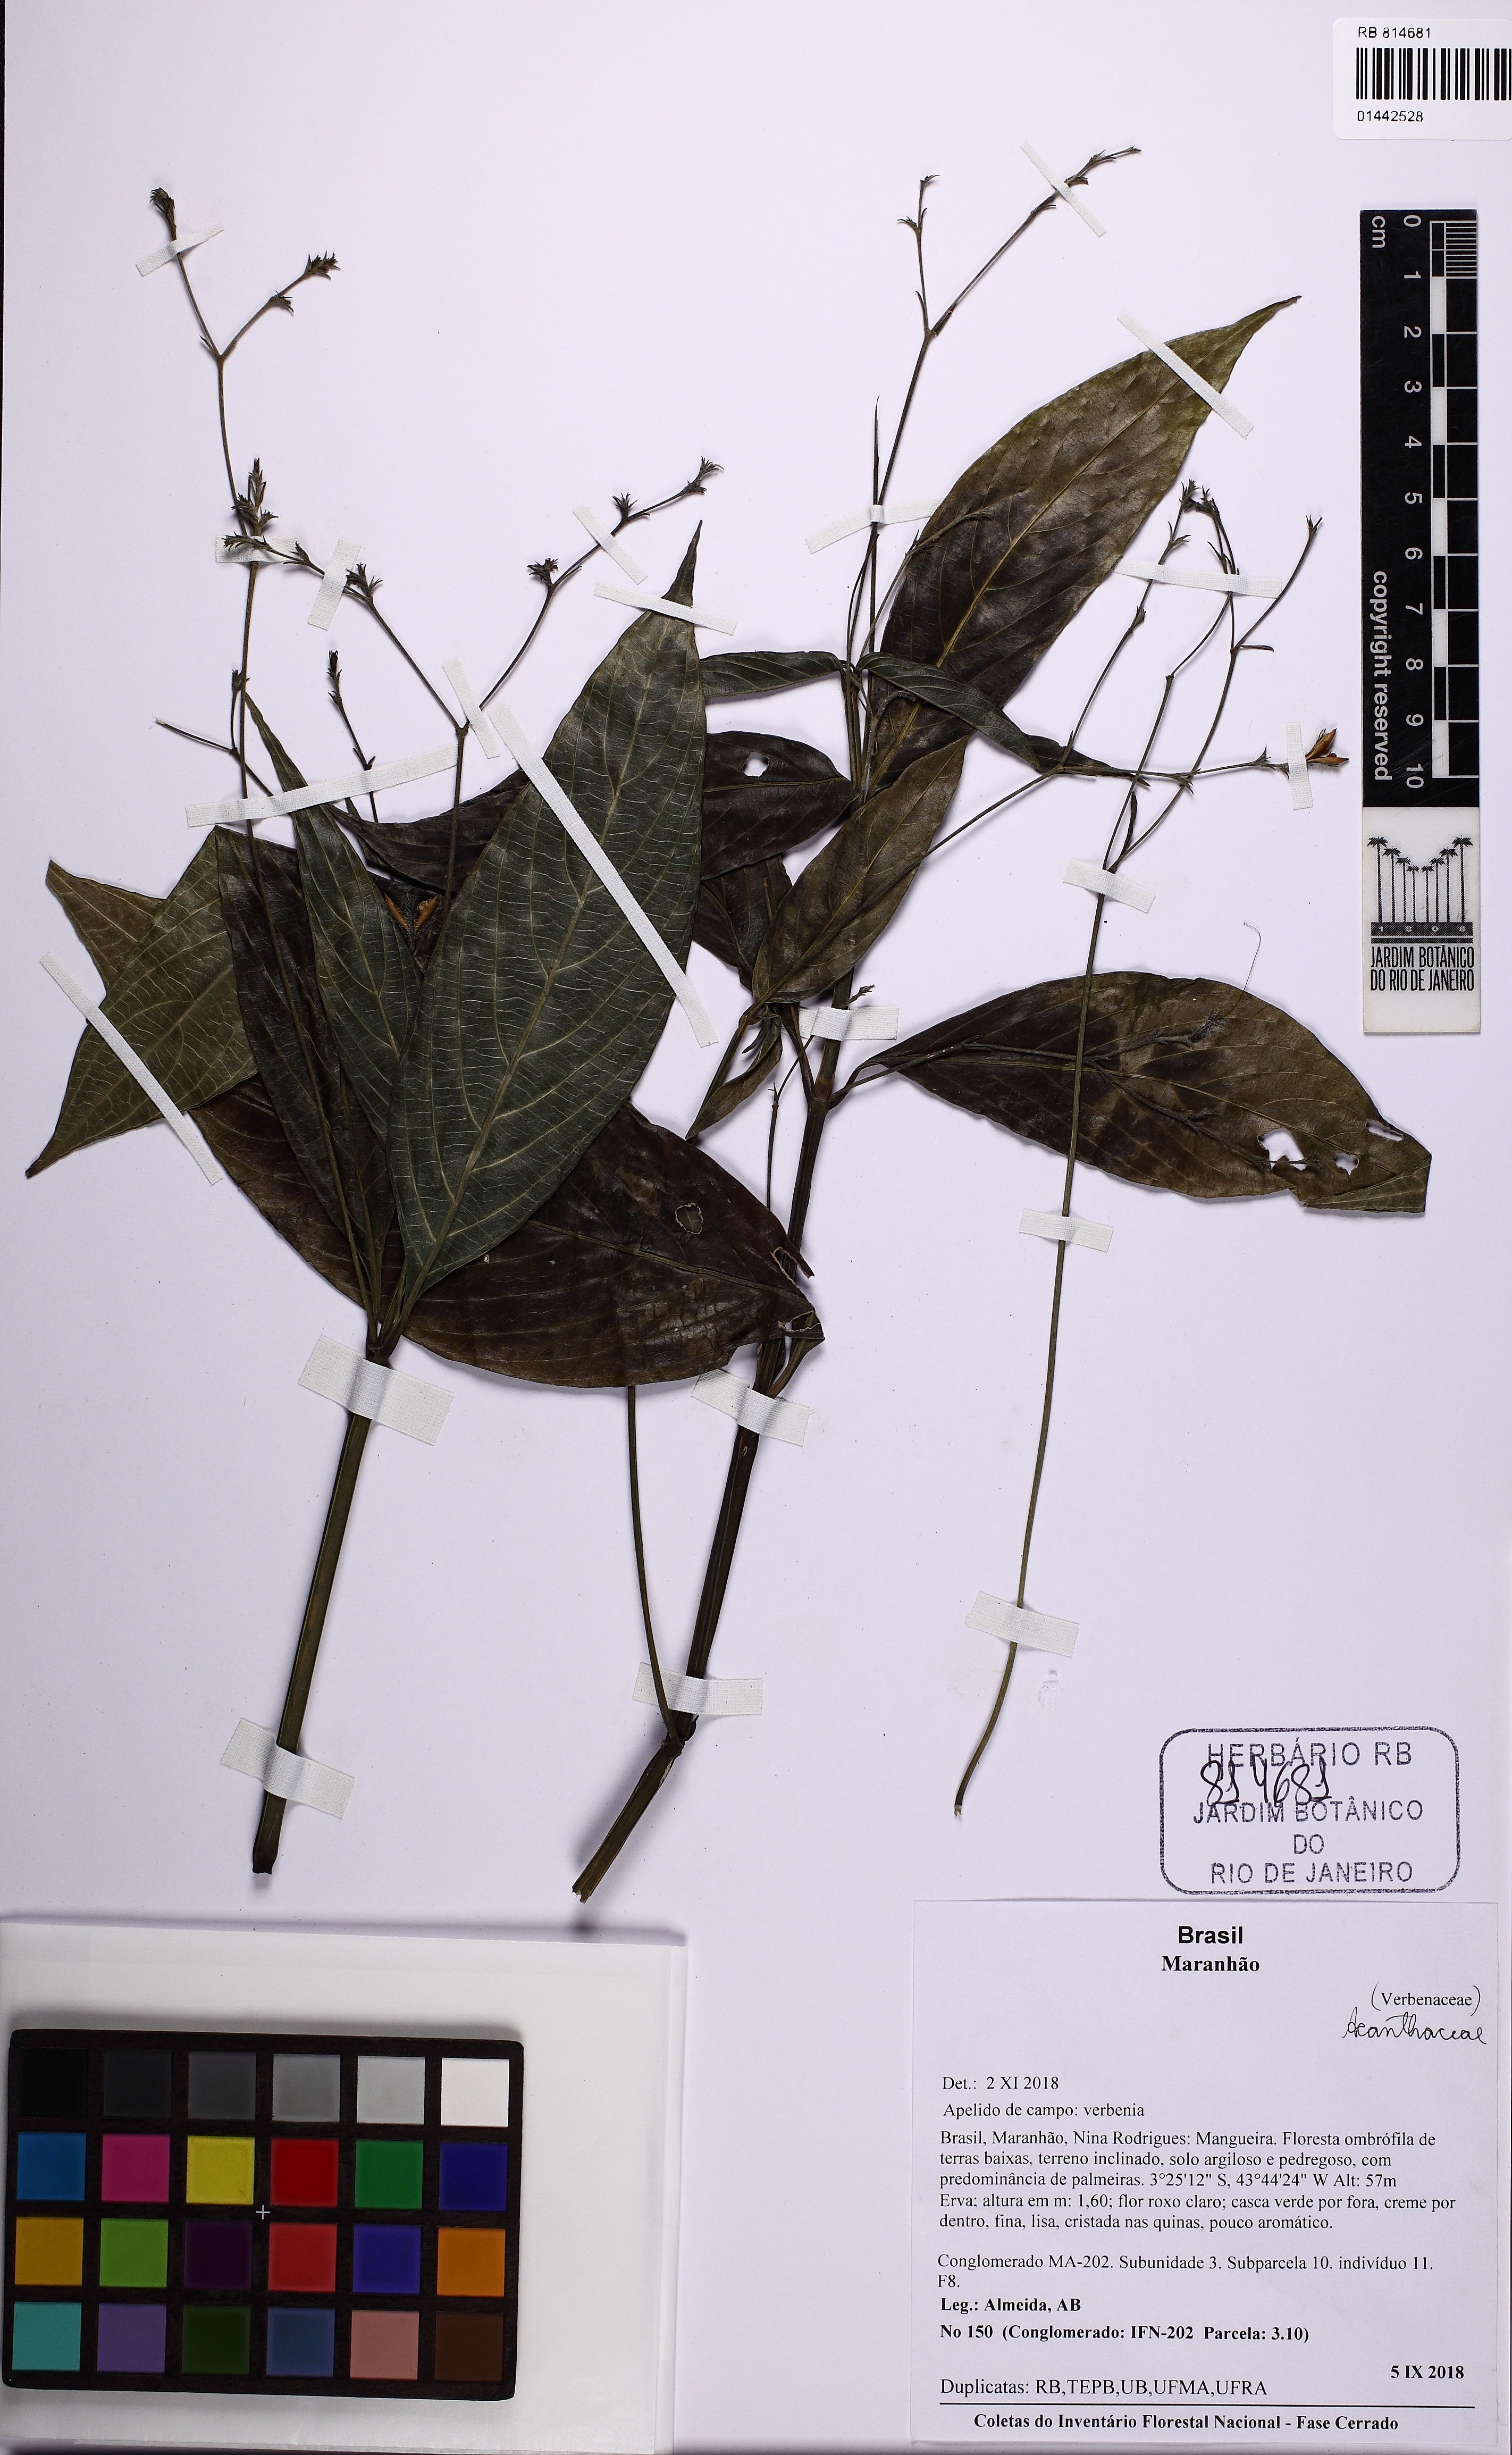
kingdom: Plantae
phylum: Tracheophyta
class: Magnoliopsida
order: Lamiales
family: Acanthaceae
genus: Ruellia
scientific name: Ruellia
